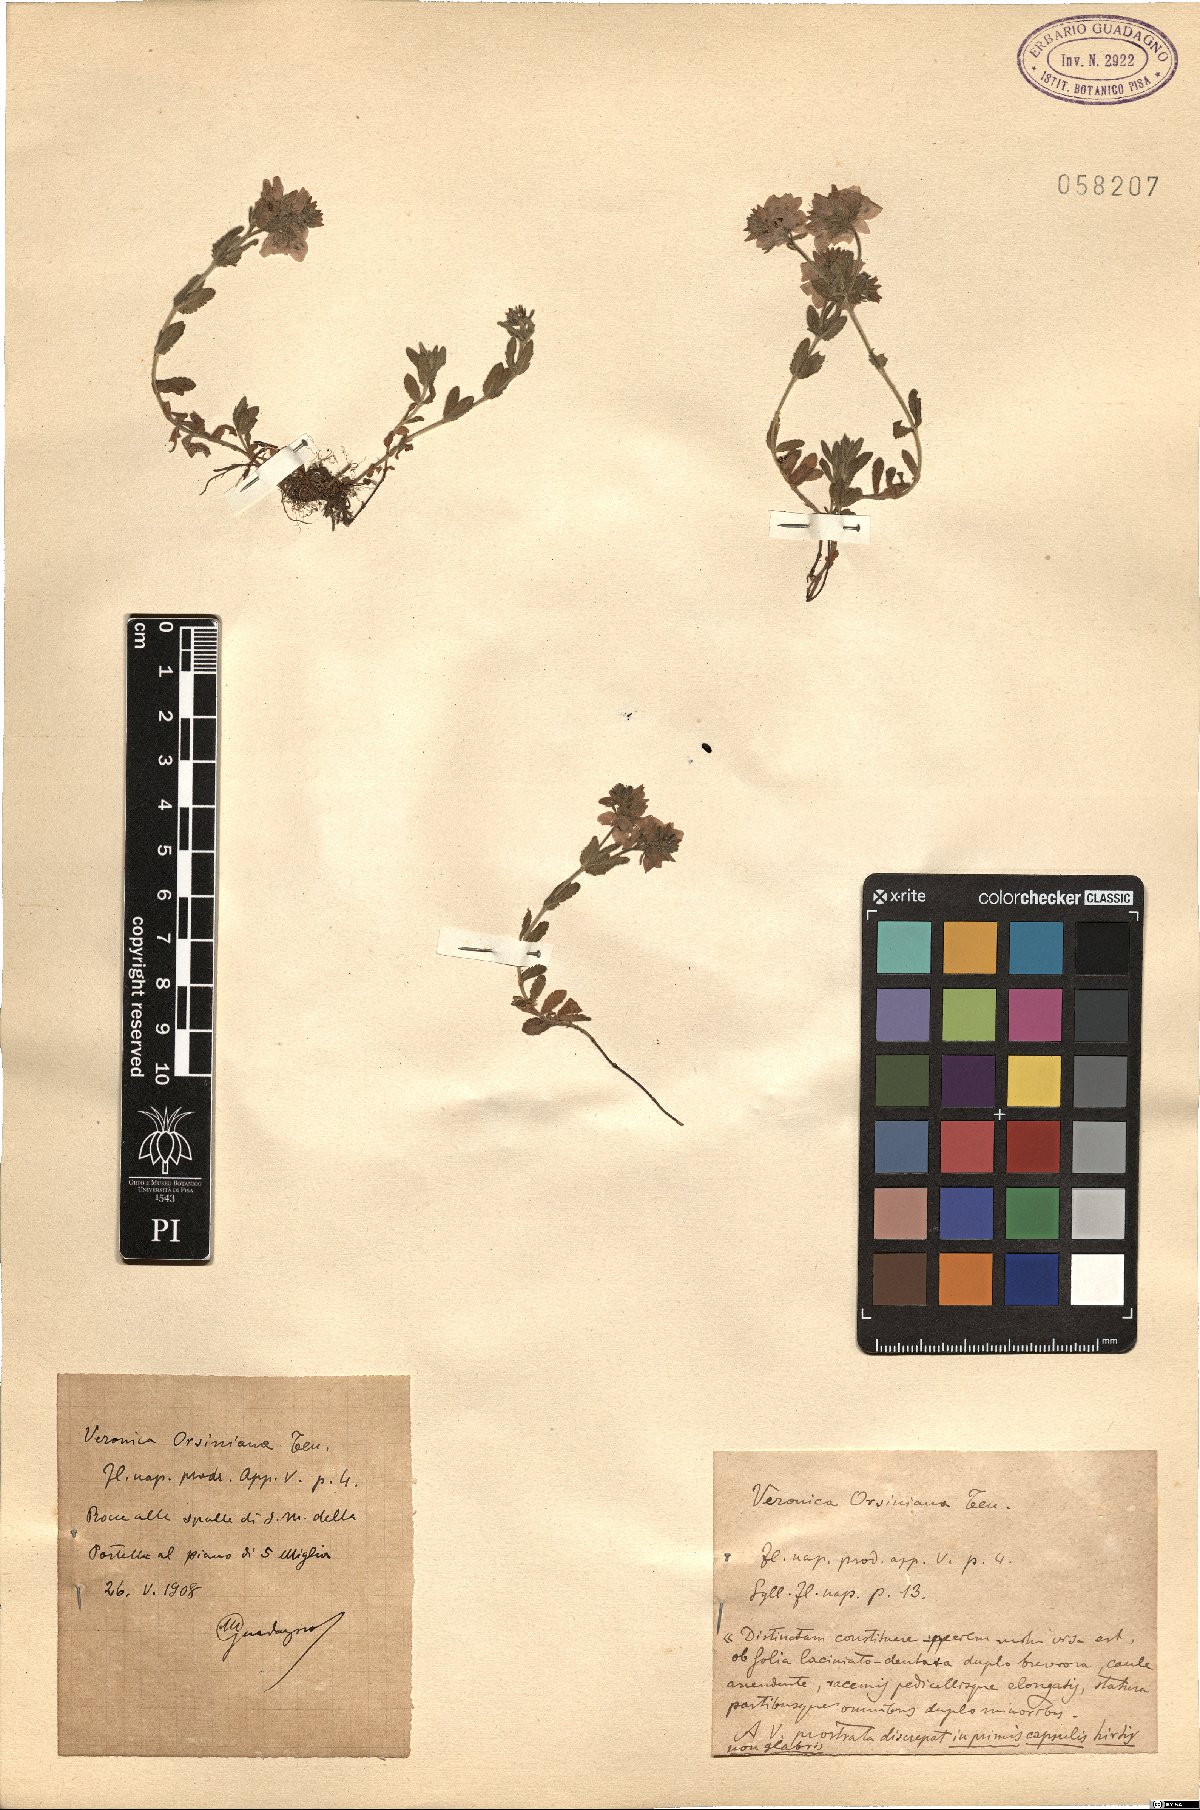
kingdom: Plantae
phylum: Tracheophyta
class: Magnoliopsida
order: Lamiales
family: Plantaginaceae
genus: Veronica
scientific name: Veronica orsiniana
